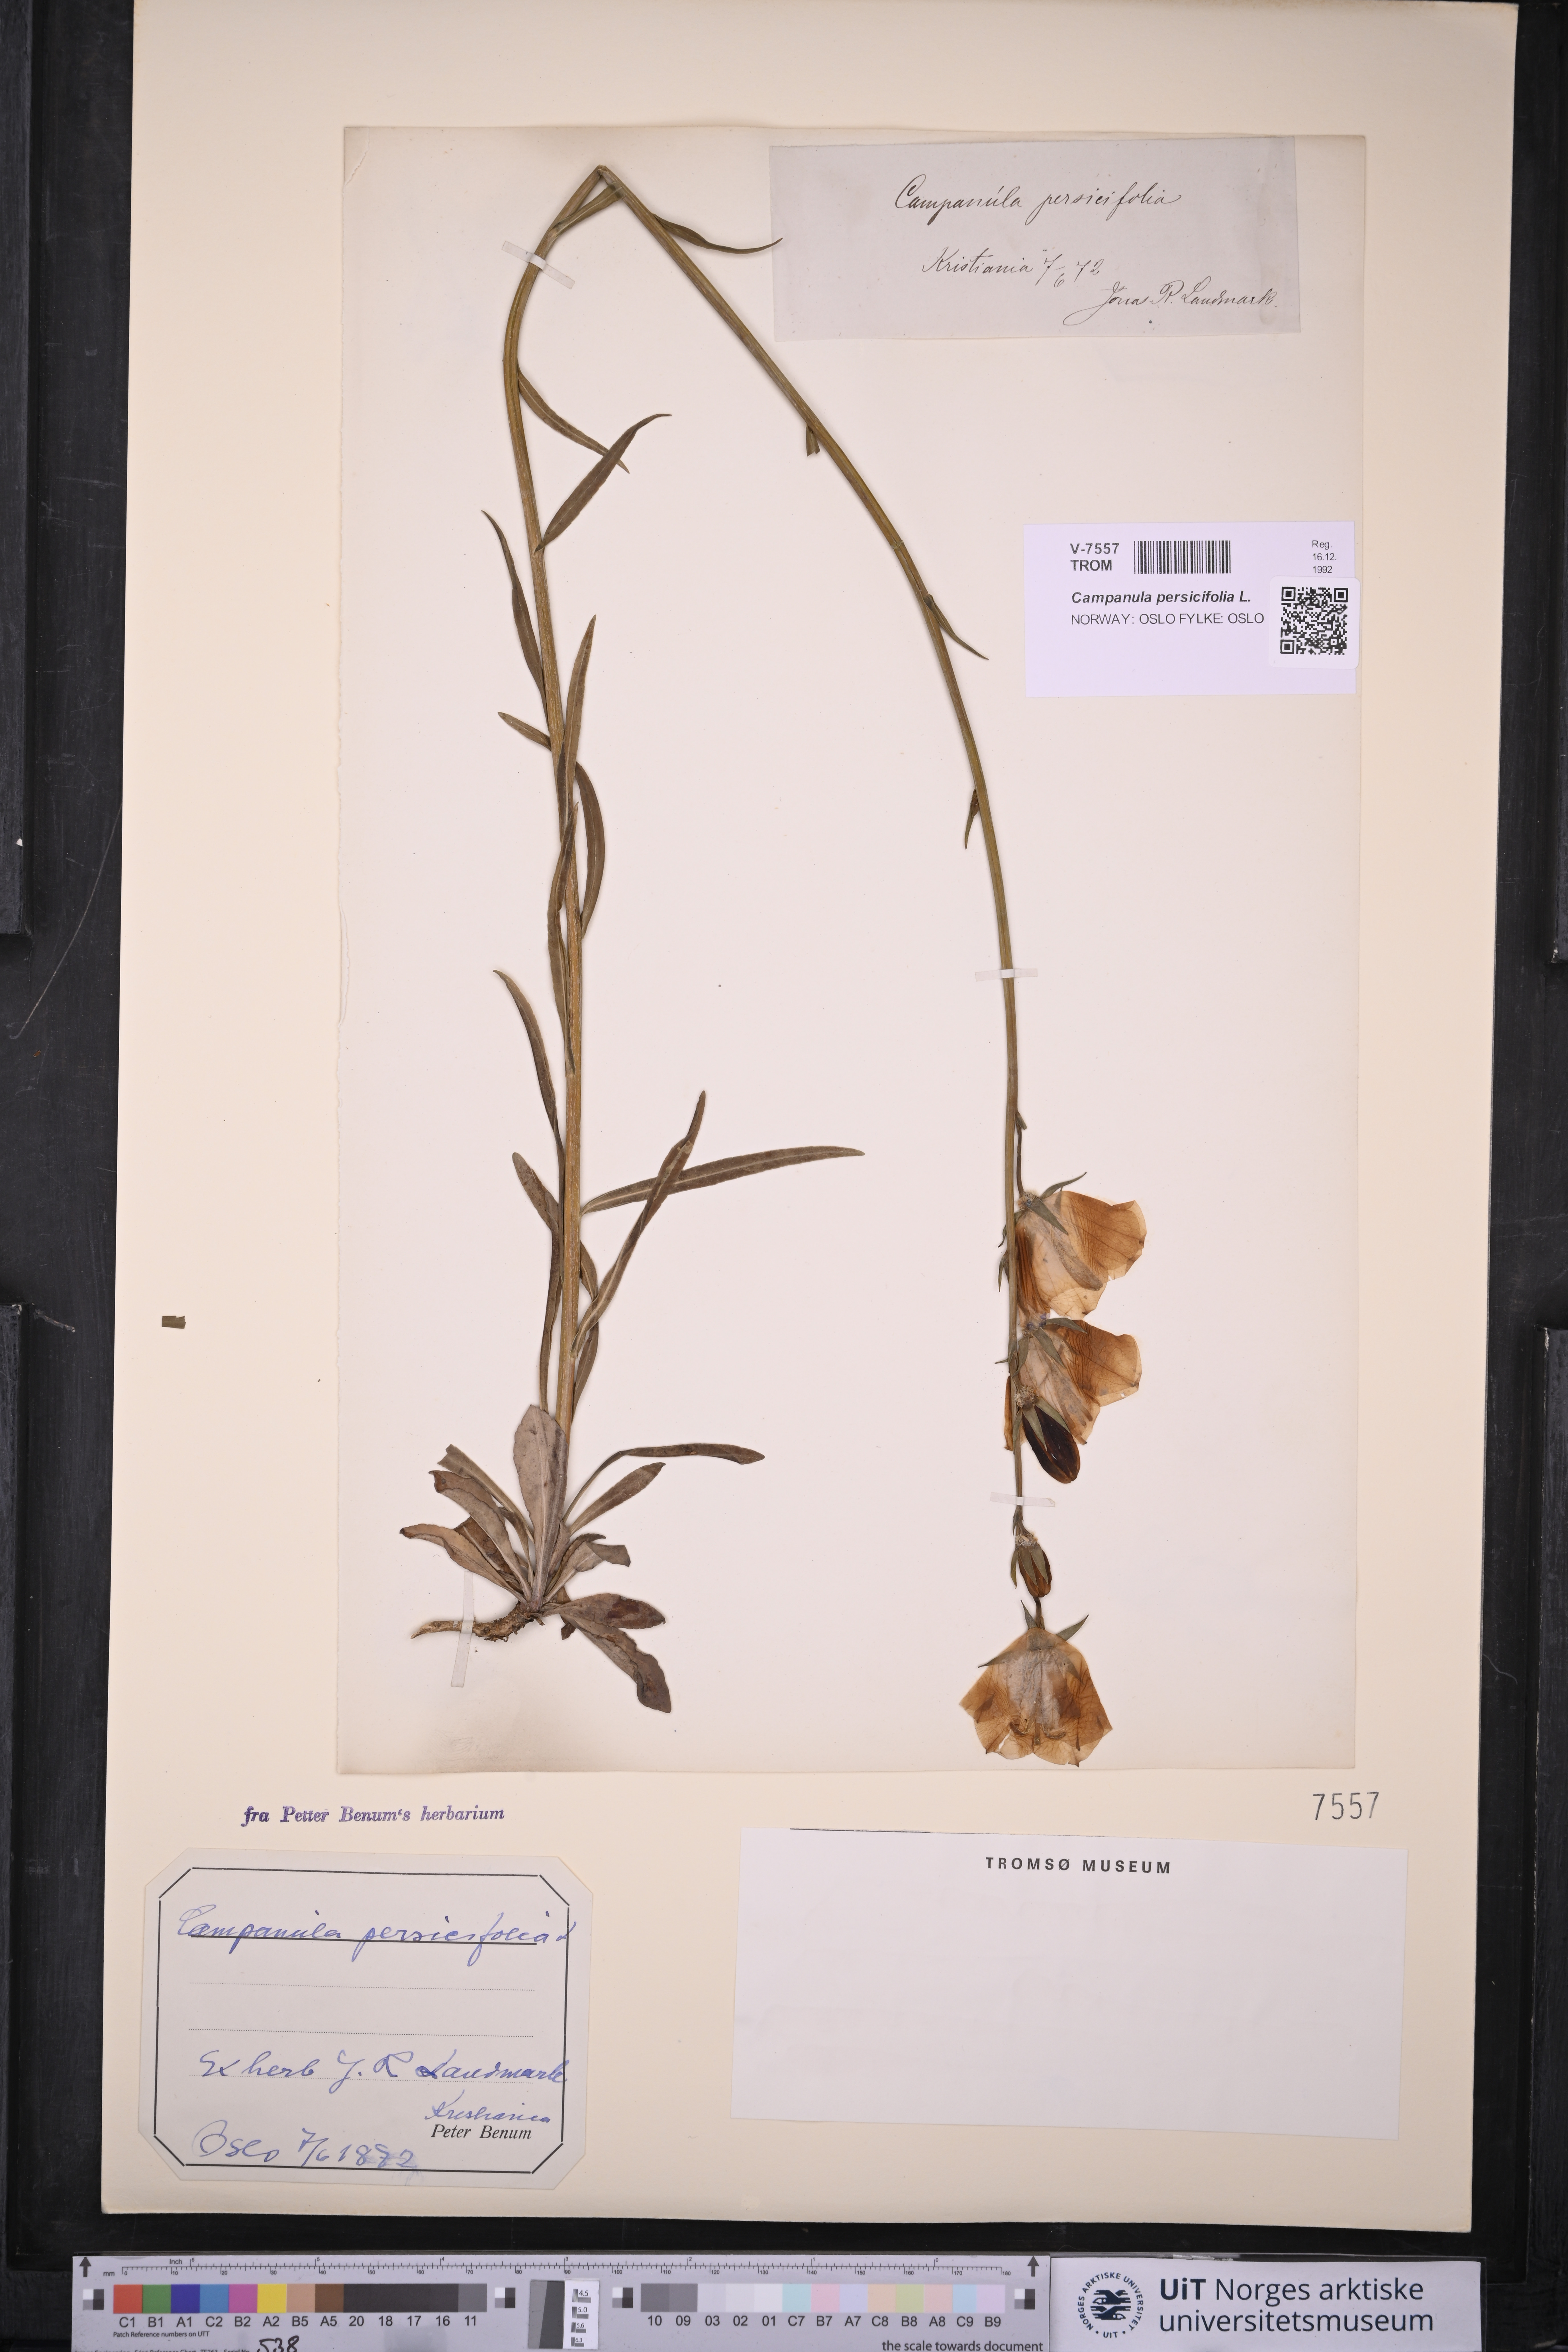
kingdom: Plantae
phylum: Tracheophyta
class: Magnoliopsida
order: Asterales
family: Campanulaceae
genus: Campanula
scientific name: Campanula persicifolia
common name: Peach-leaved bellflower
